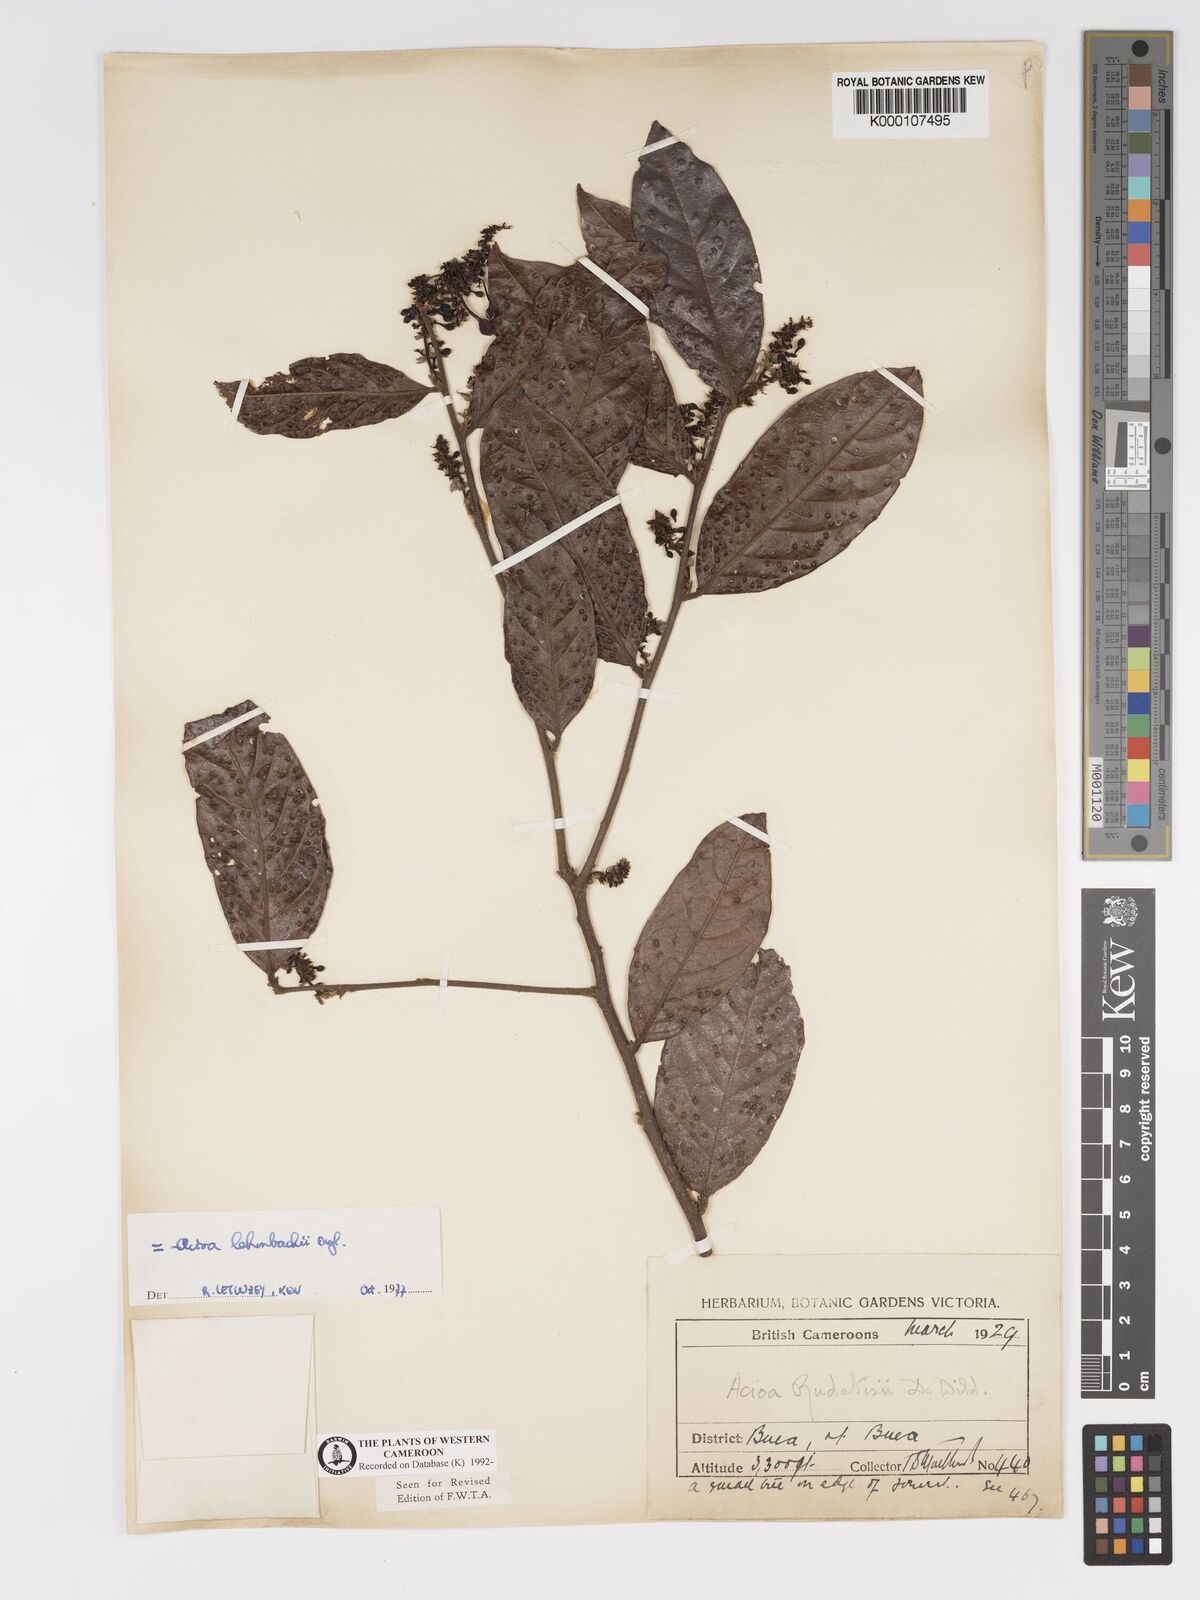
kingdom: Plantae
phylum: Tracheophyta
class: Magnoliopsida
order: Malpighiales
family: Chrysobalanaceae
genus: Dactyladenia
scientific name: Dactyladenia lehmbachii
